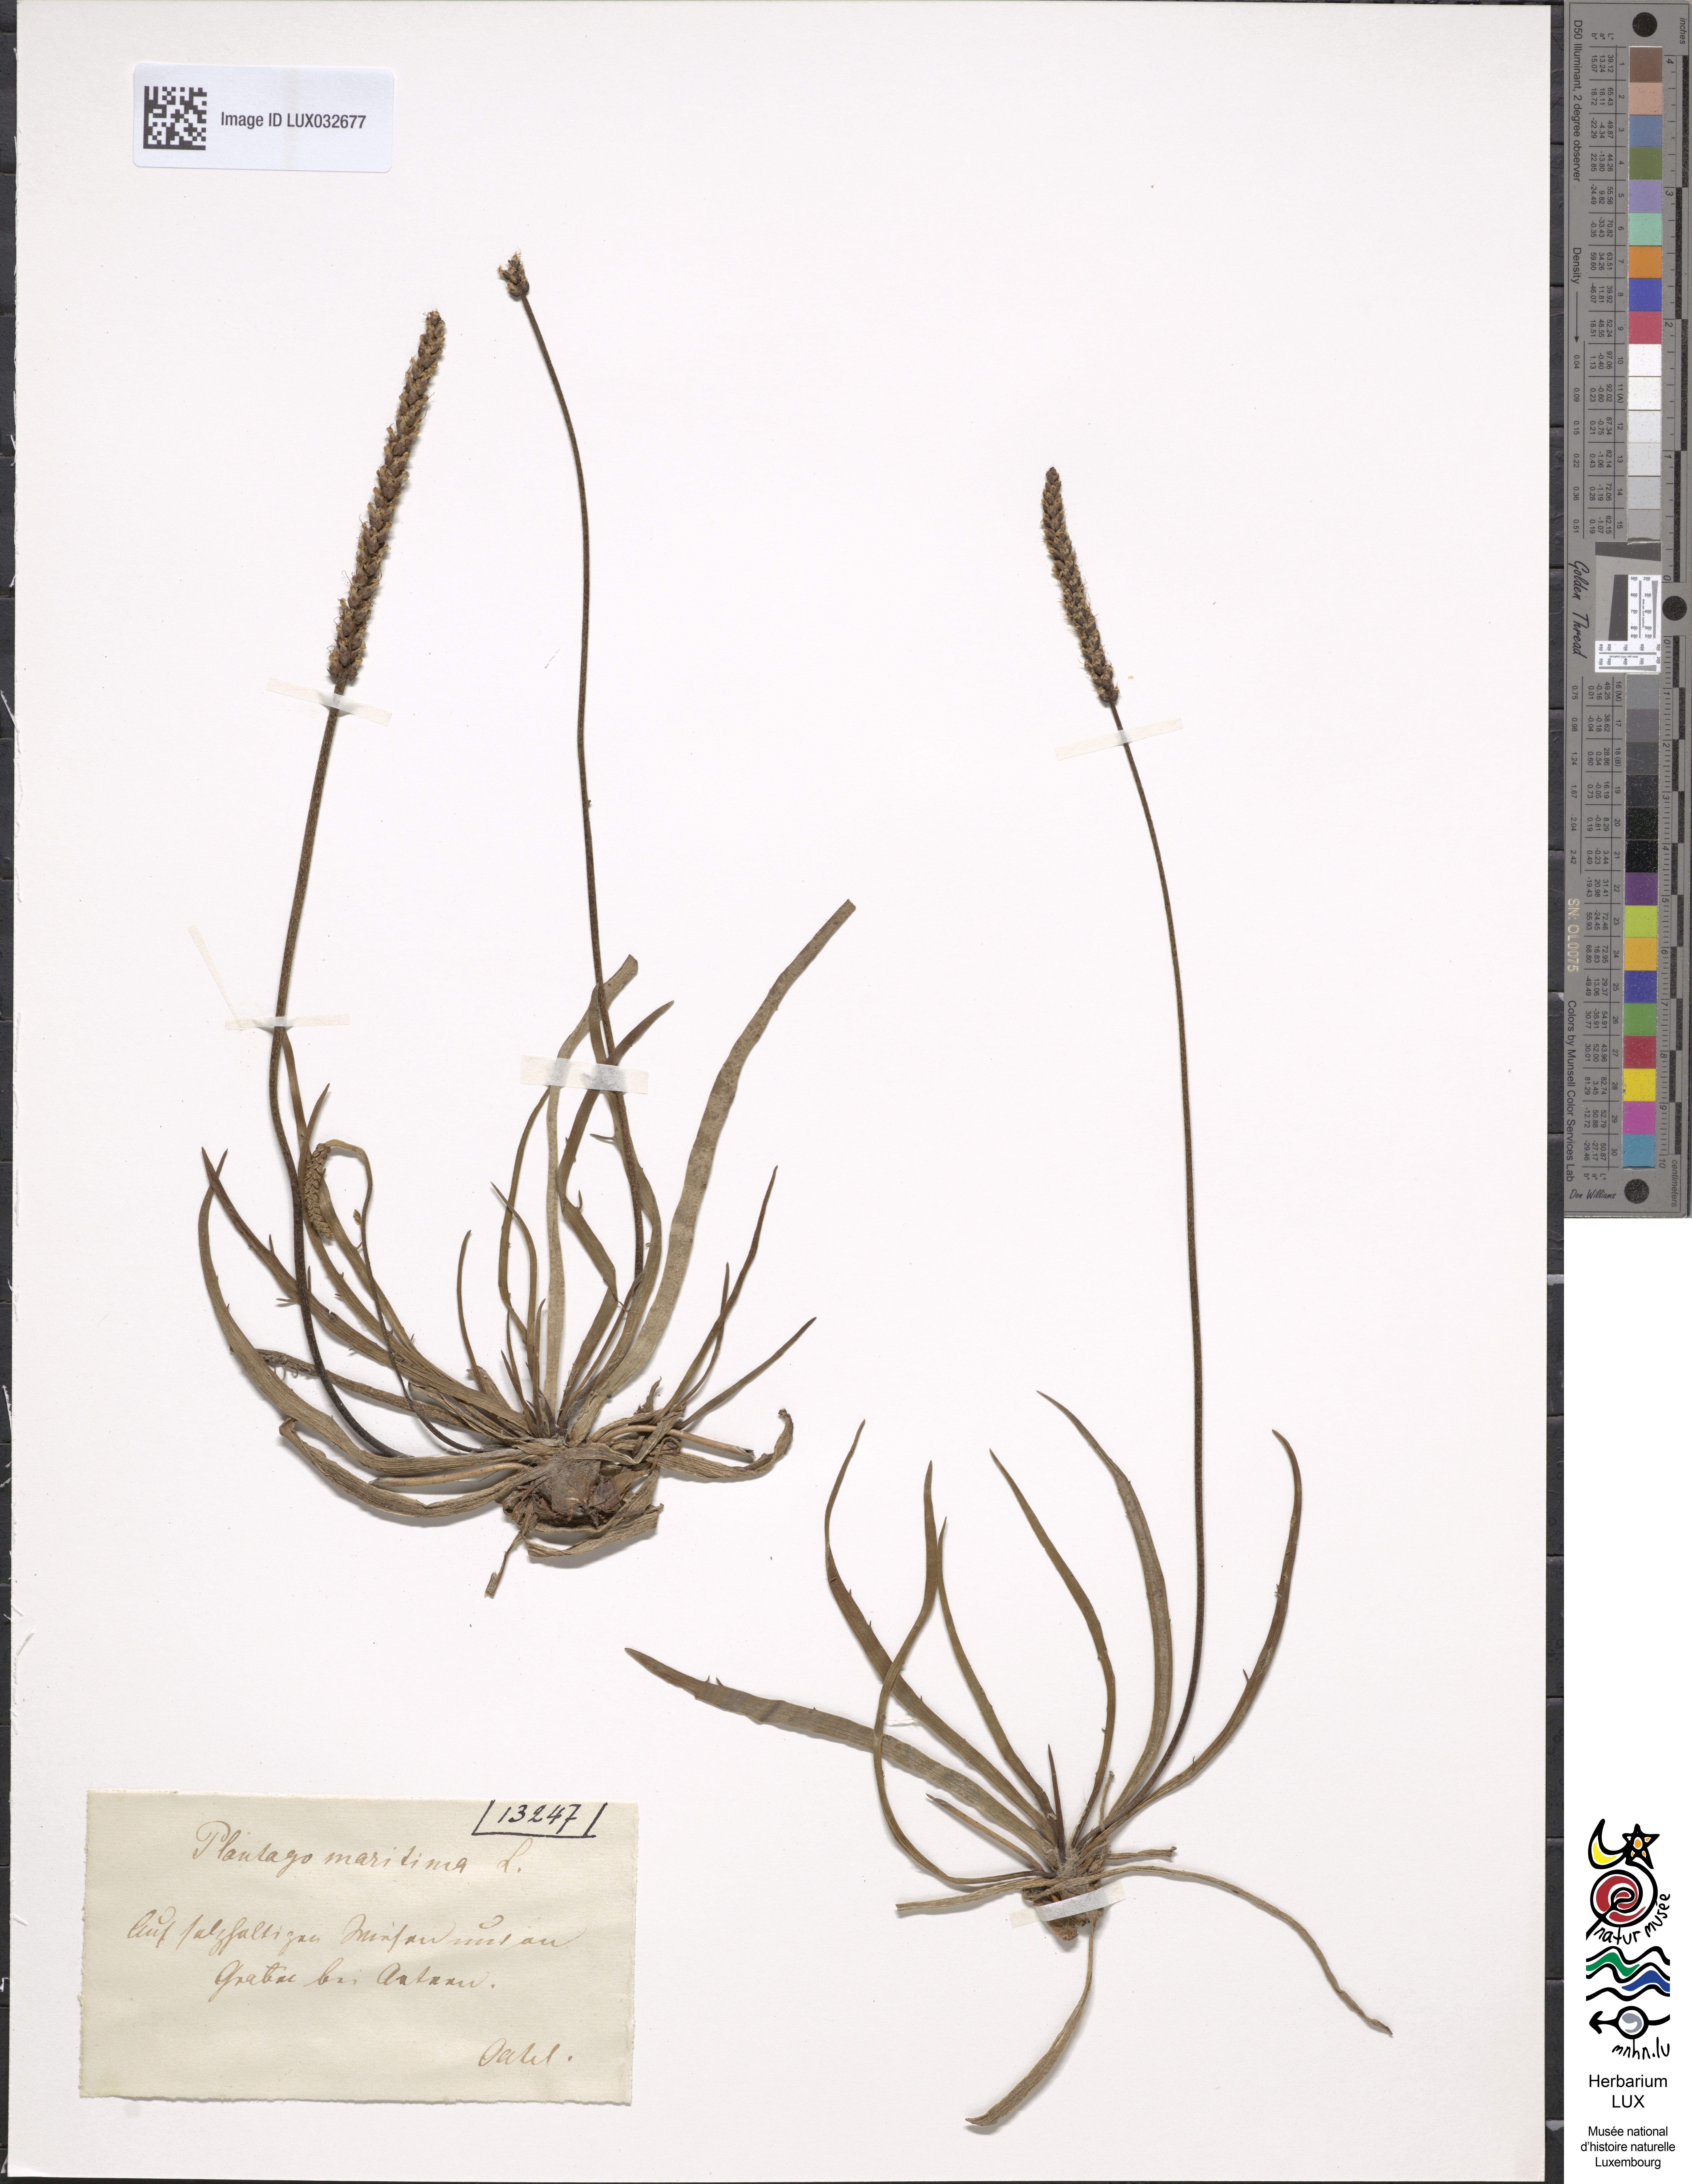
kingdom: Plantae
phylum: Tracheophyta
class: Magnoliopsida
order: Lamiales
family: Plantaginaceae
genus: Plantago
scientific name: Plantago maritima
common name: Sea plantain
